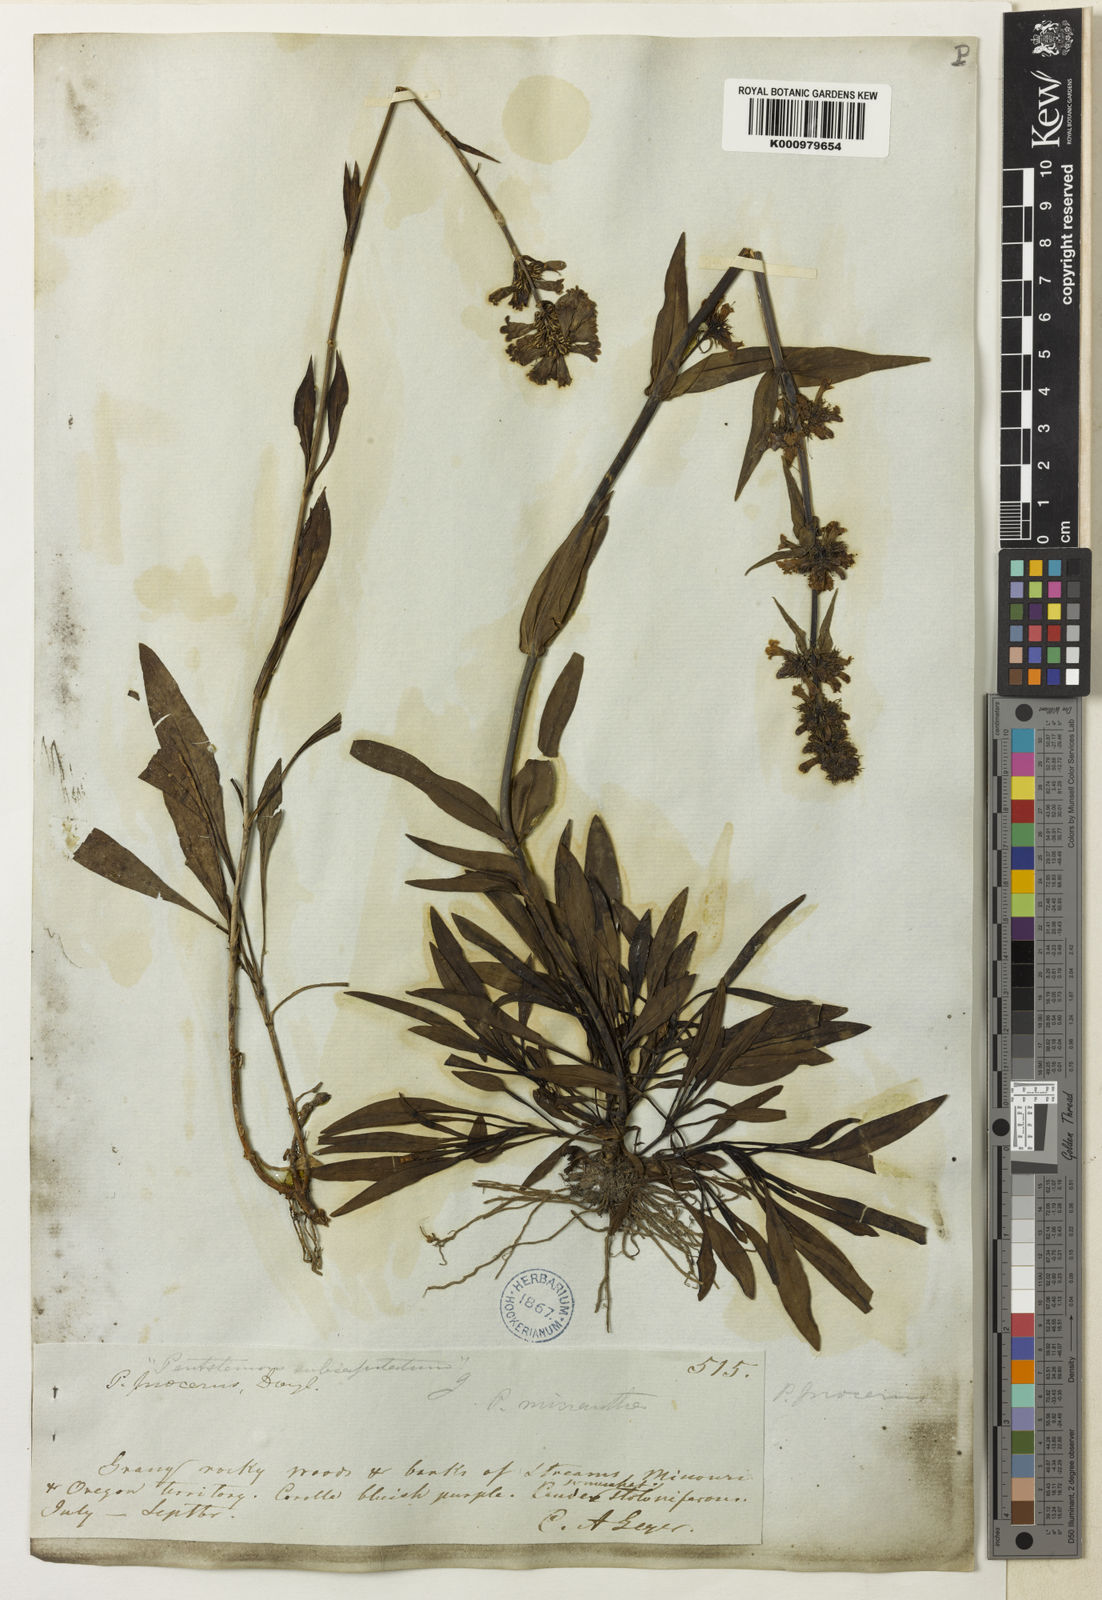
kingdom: Plantae
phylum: Tracheophyta
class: Magnoliopsida
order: Lamiales
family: Plantaginaceae
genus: Penstemon
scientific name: Penstemon procerus
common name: Small-flower penstemon
